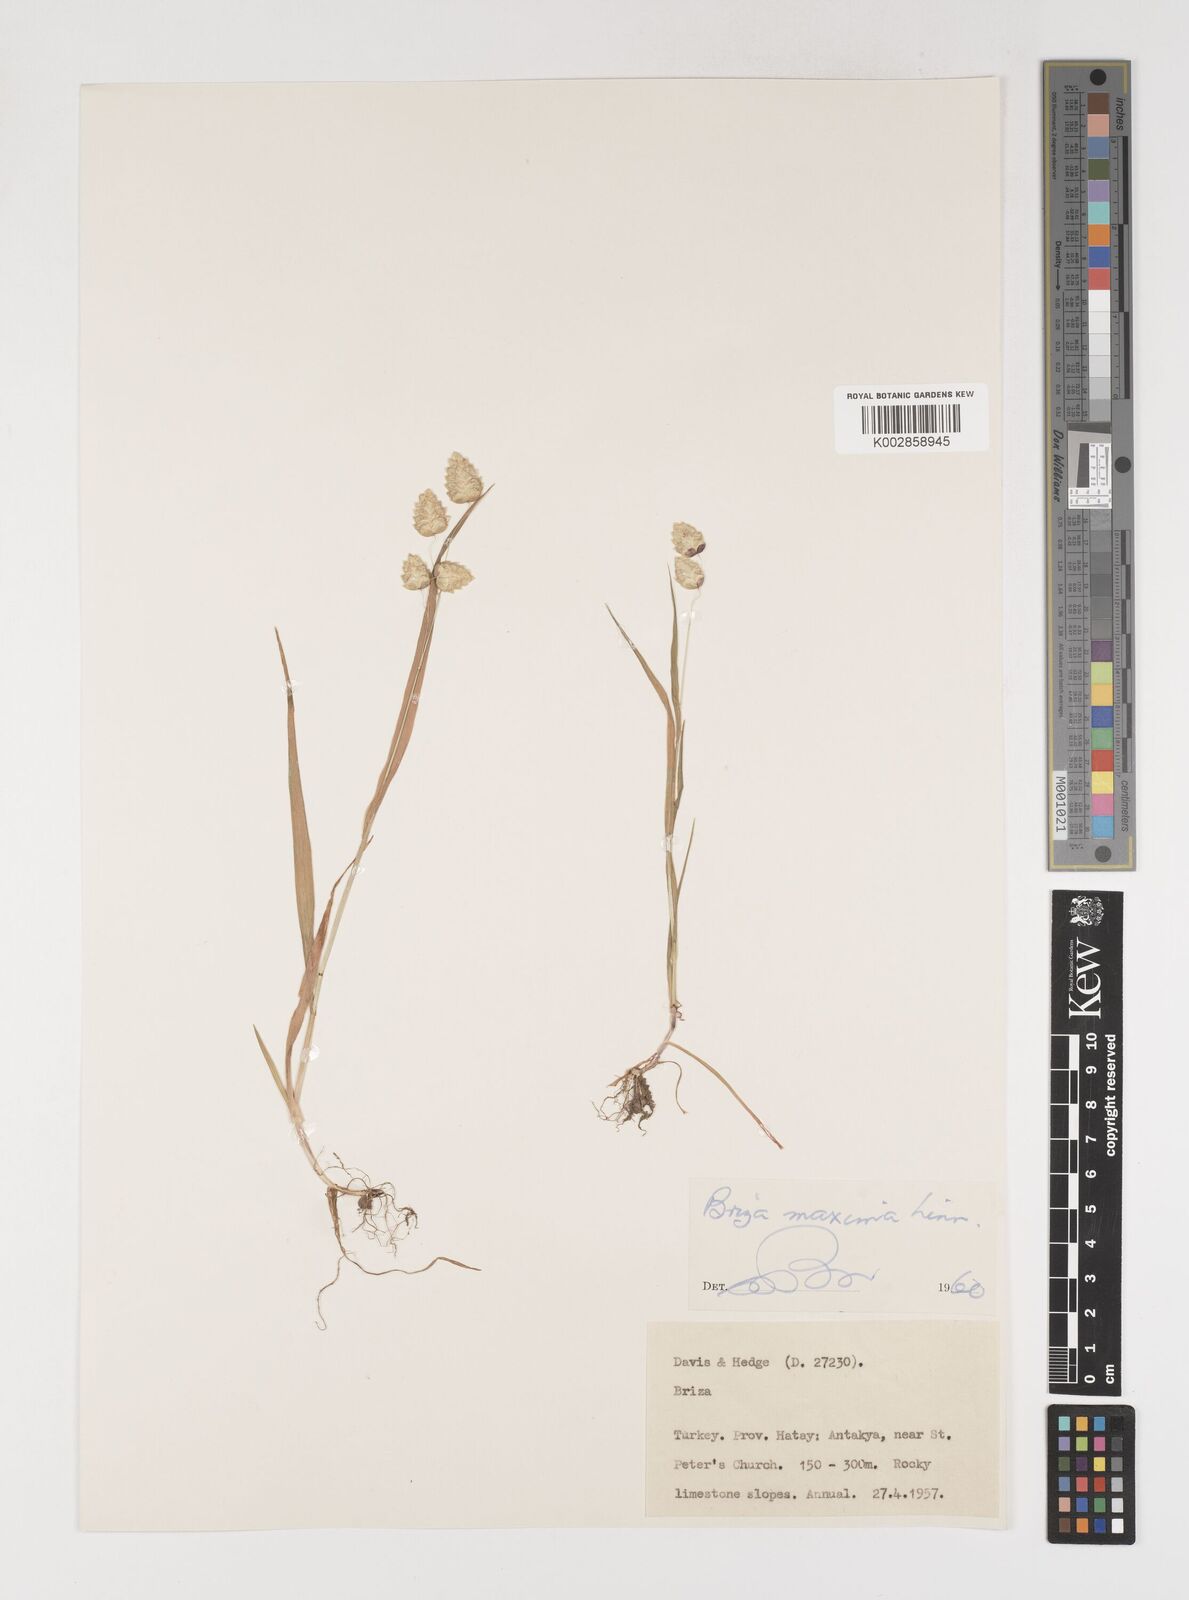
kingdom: Plantae
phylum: Tracheophyta
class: Liliopsida
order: Poales
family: Poaceae
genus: Briza
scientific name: Briza maxima
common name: Big quakinggrass
